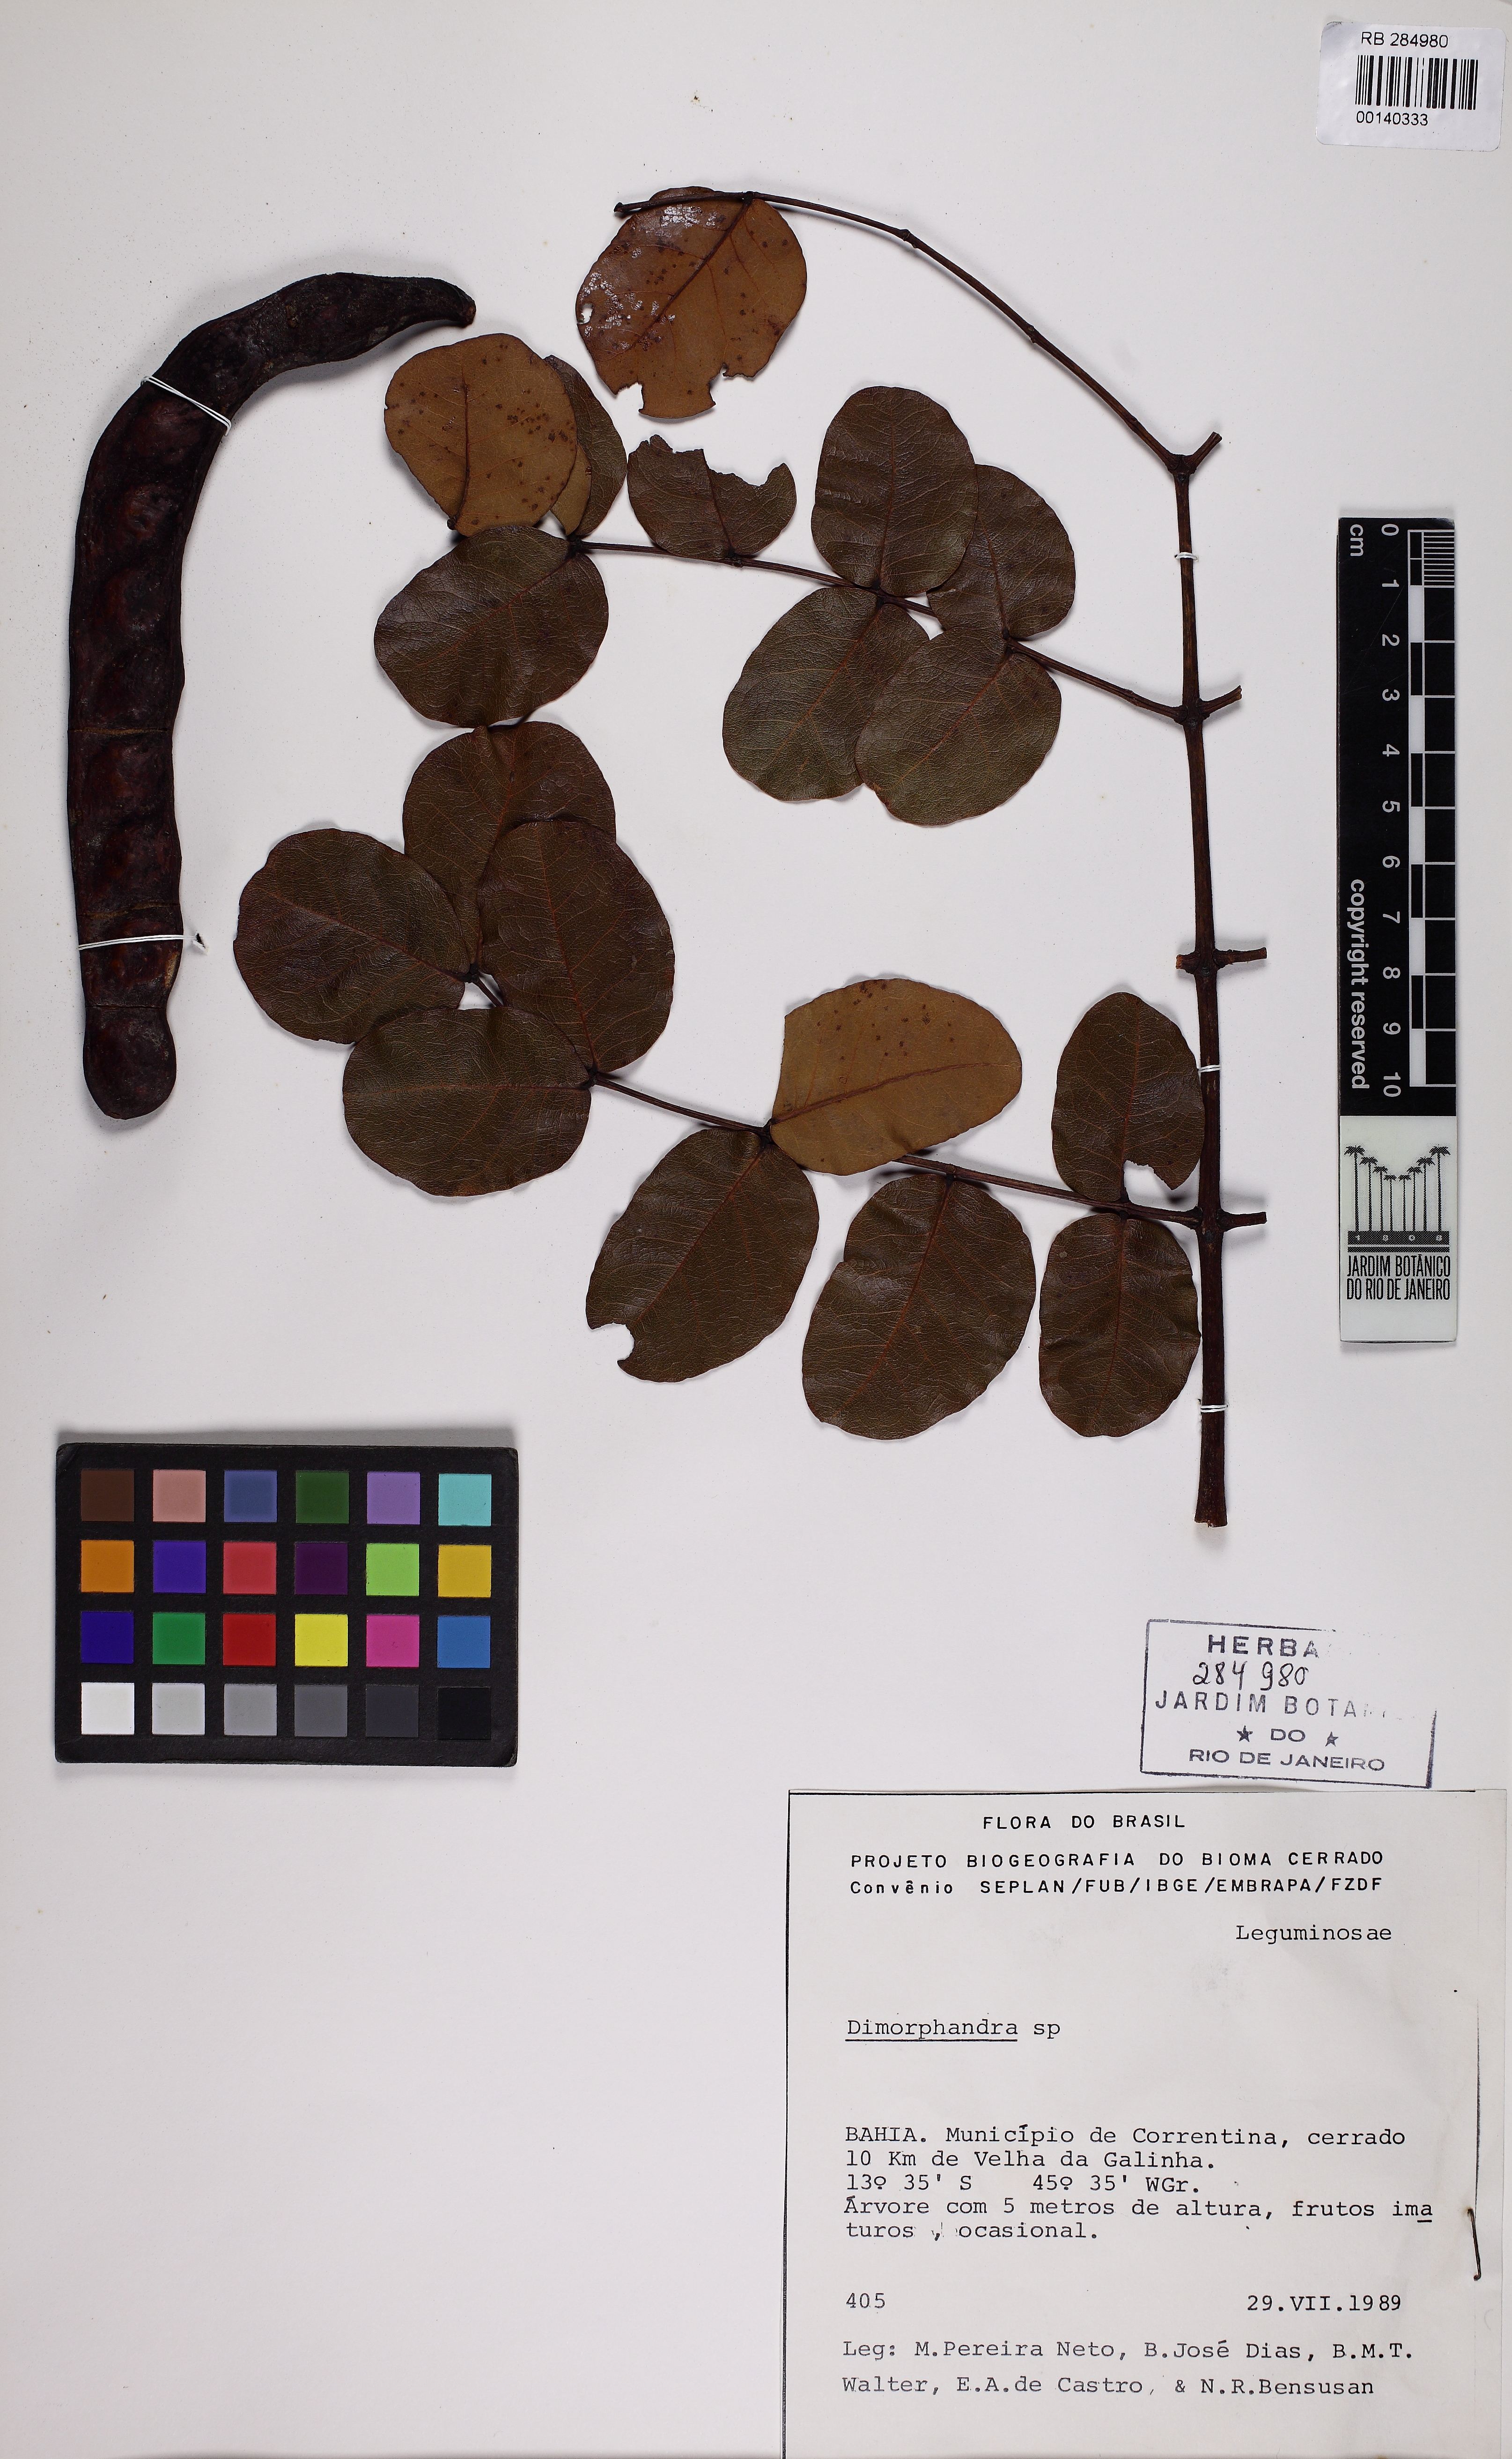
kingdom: Plantae
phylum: Tracheophyta
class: Magnoliopsida
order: Fabales
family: Fabaceae
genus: Stryphnodendron
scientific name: Stryphnodendron coriaceum
